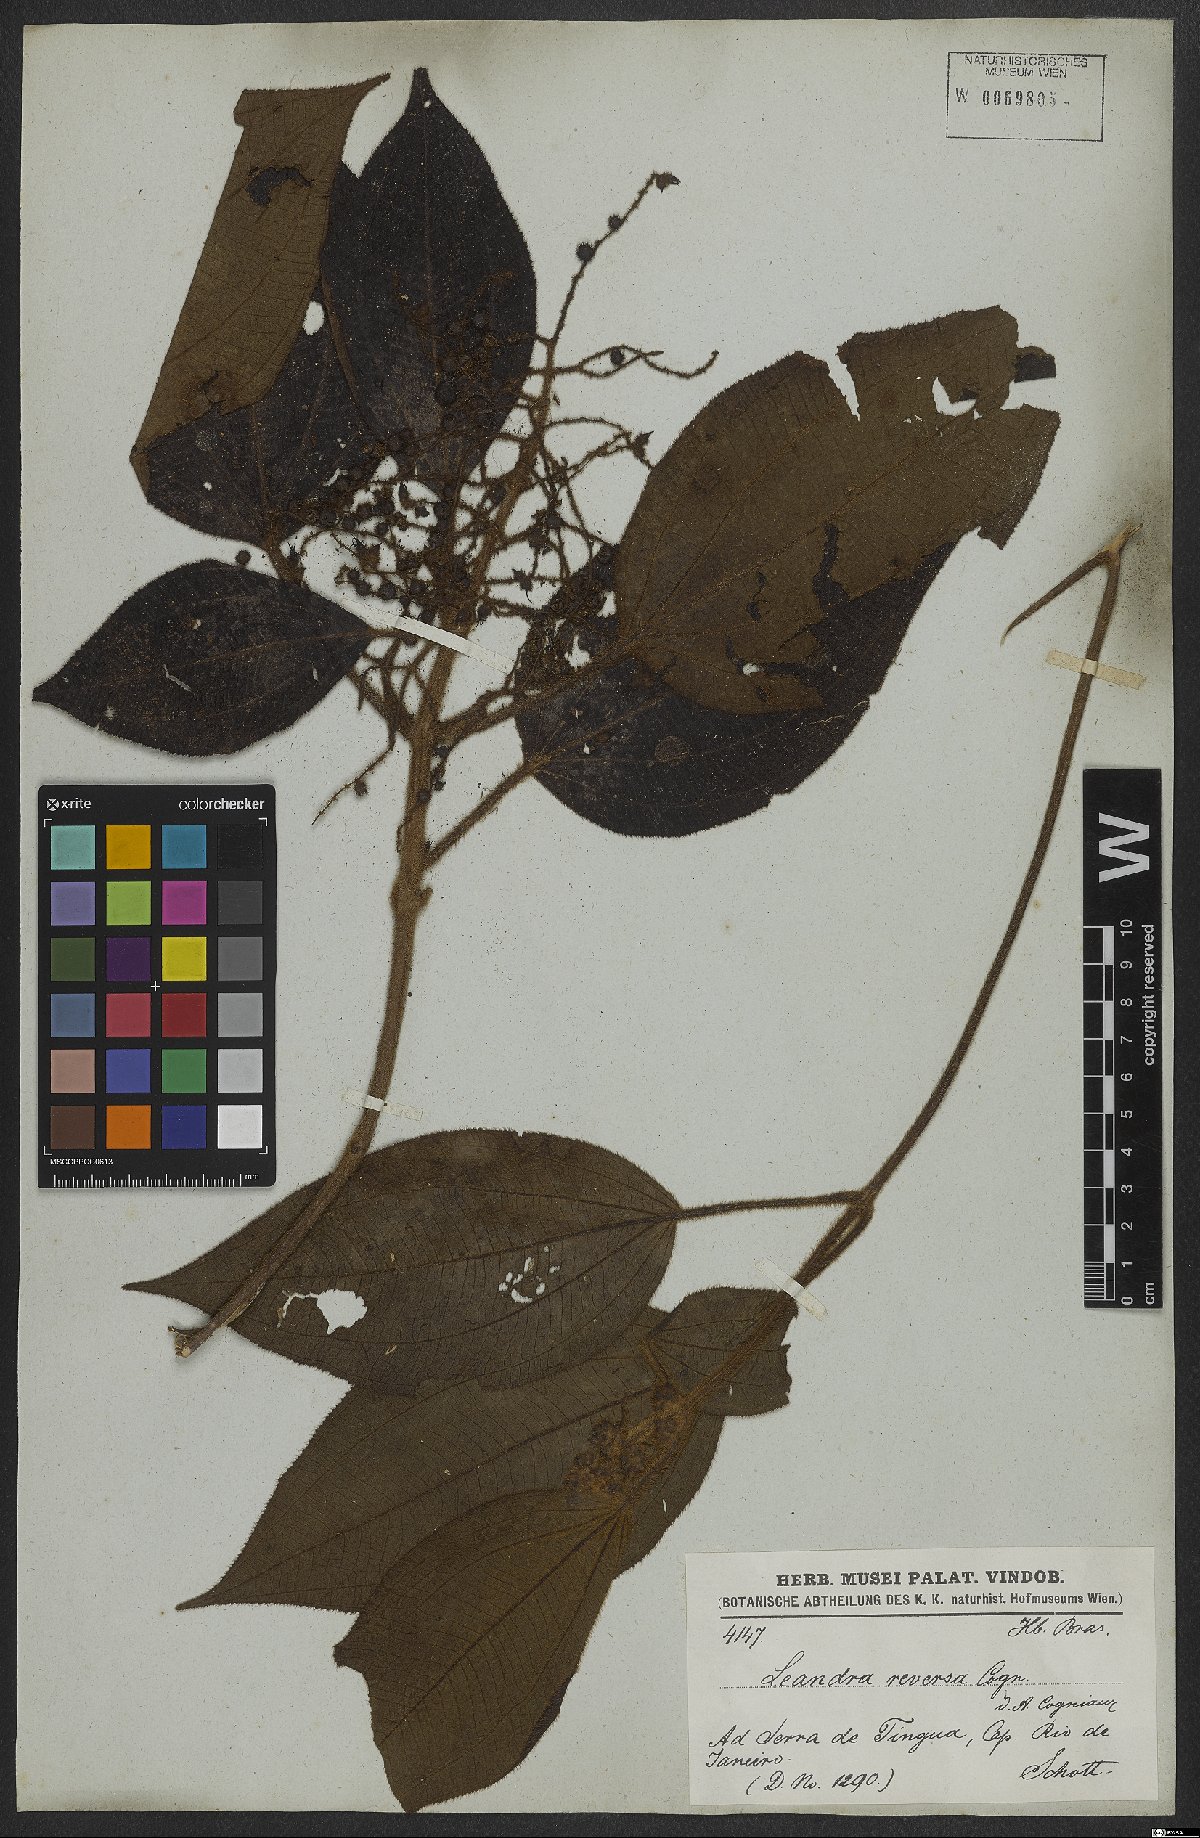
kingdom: Plantae
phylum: Tracheophyta
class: Magnoliopsida
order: Myrtales
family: Melastomataceae
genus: Miconia
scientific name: Miconia reversa
